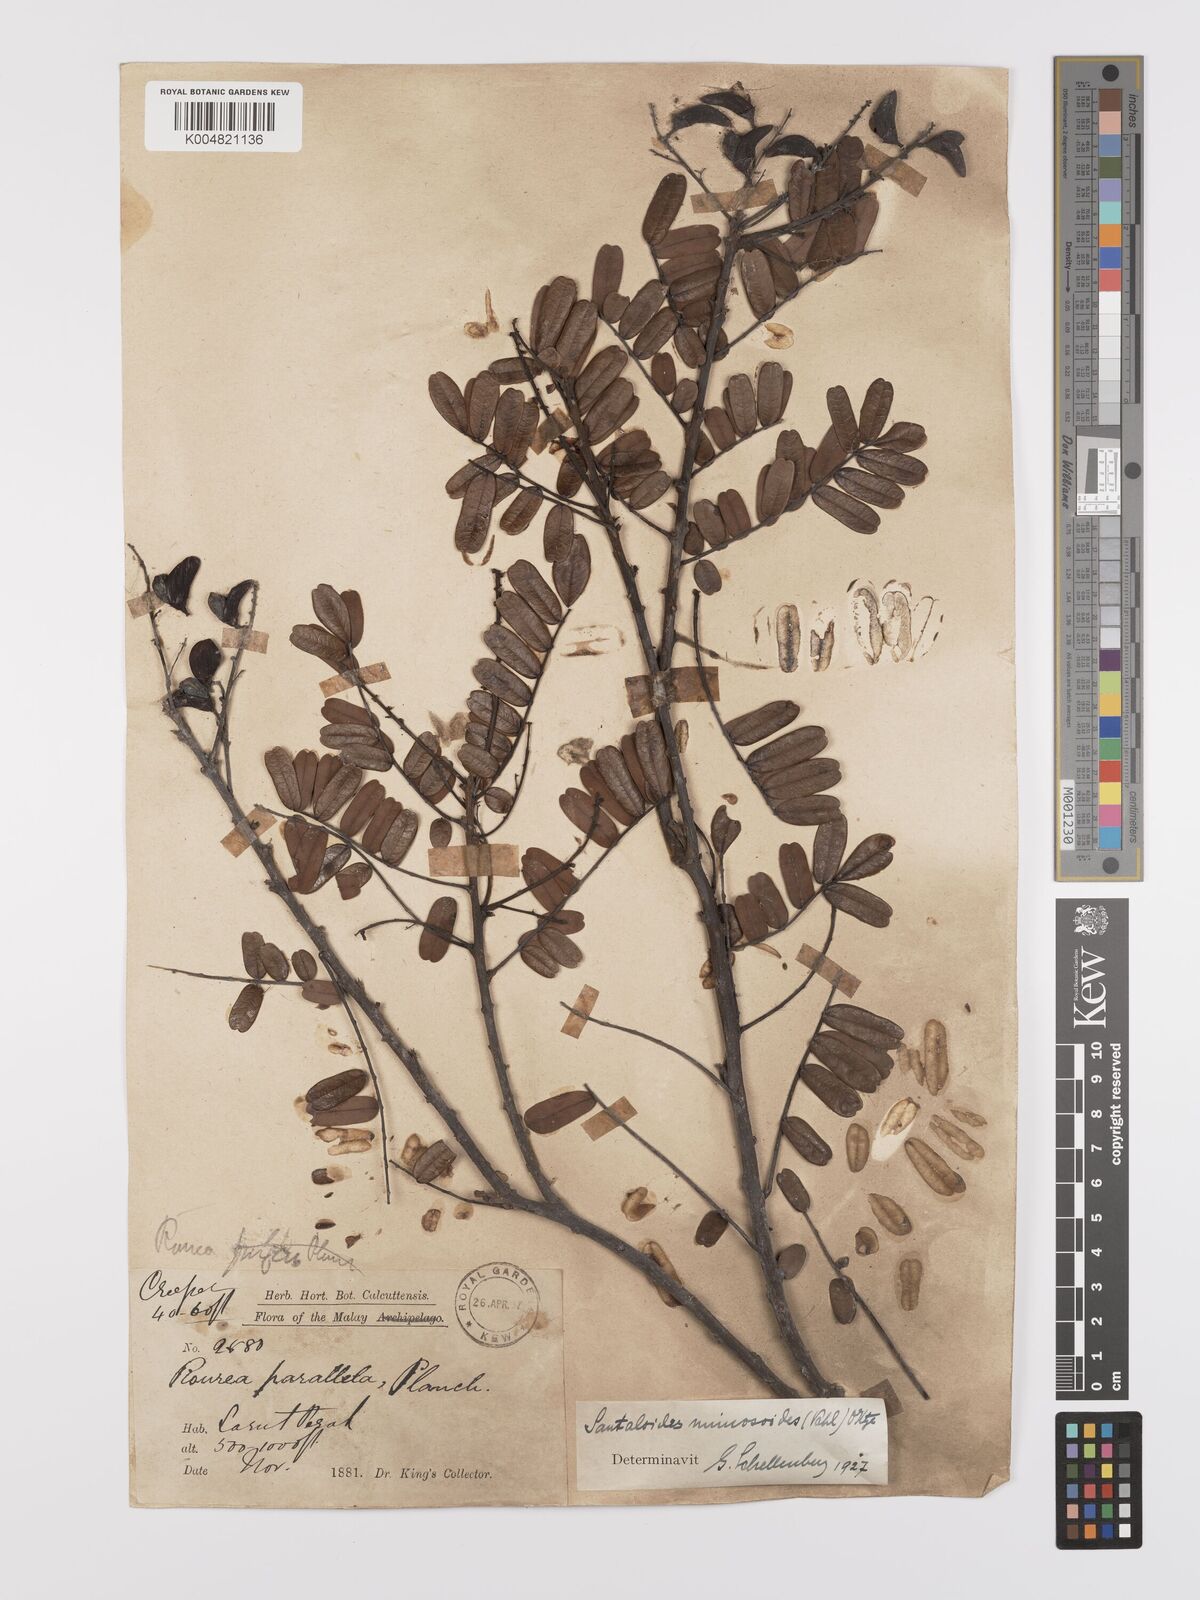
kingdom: Plantae
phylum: Tracheophyta
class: Magnoliopsida
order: Oxalidales
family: Connaraceae
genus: Rourea
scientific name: Rourea mimosoides
